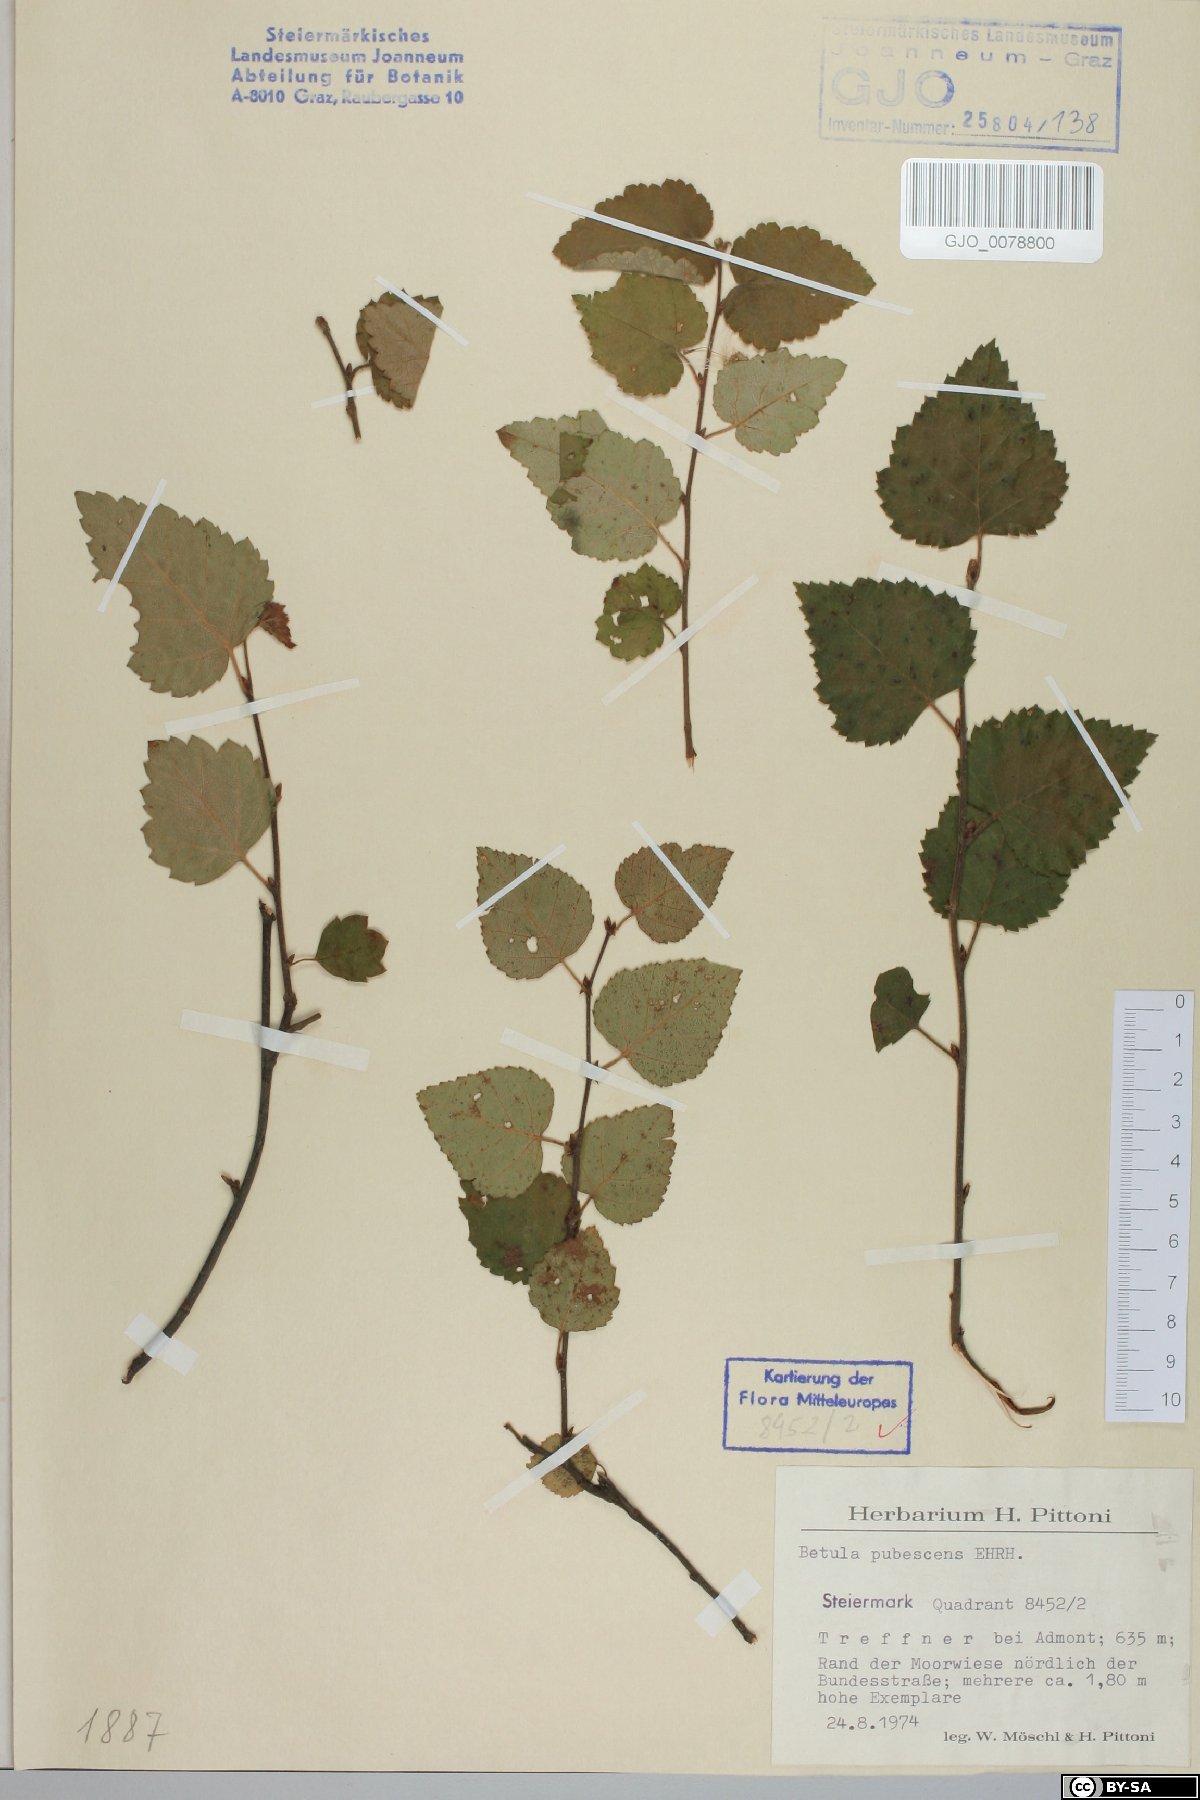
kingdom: Plantae
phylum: Tracheophyta
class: Magnoliopsida
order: Fagales
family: Betulaceae
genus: Betula
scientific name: Betula pubescens
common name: Downy birch
